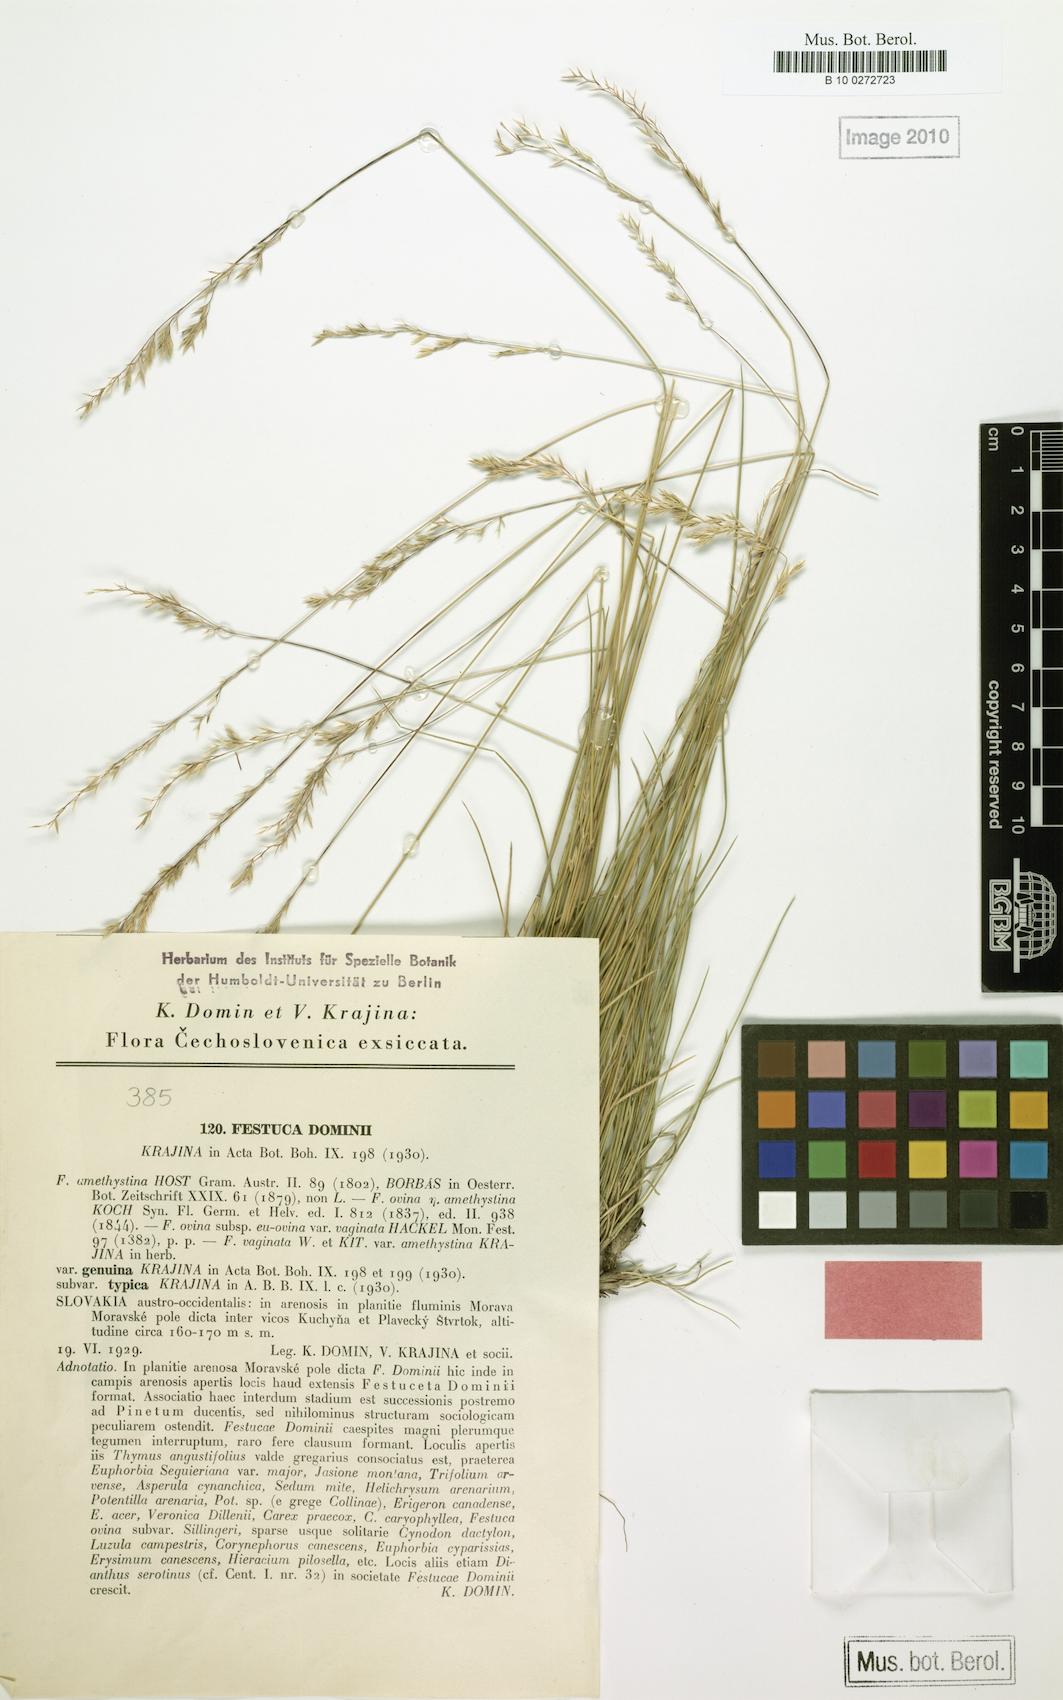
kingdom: Plantae
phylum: Tracheophyta
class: Liliopsida
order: Poales
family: Poaceae
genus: Festuca
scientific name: Festuca vaginata
